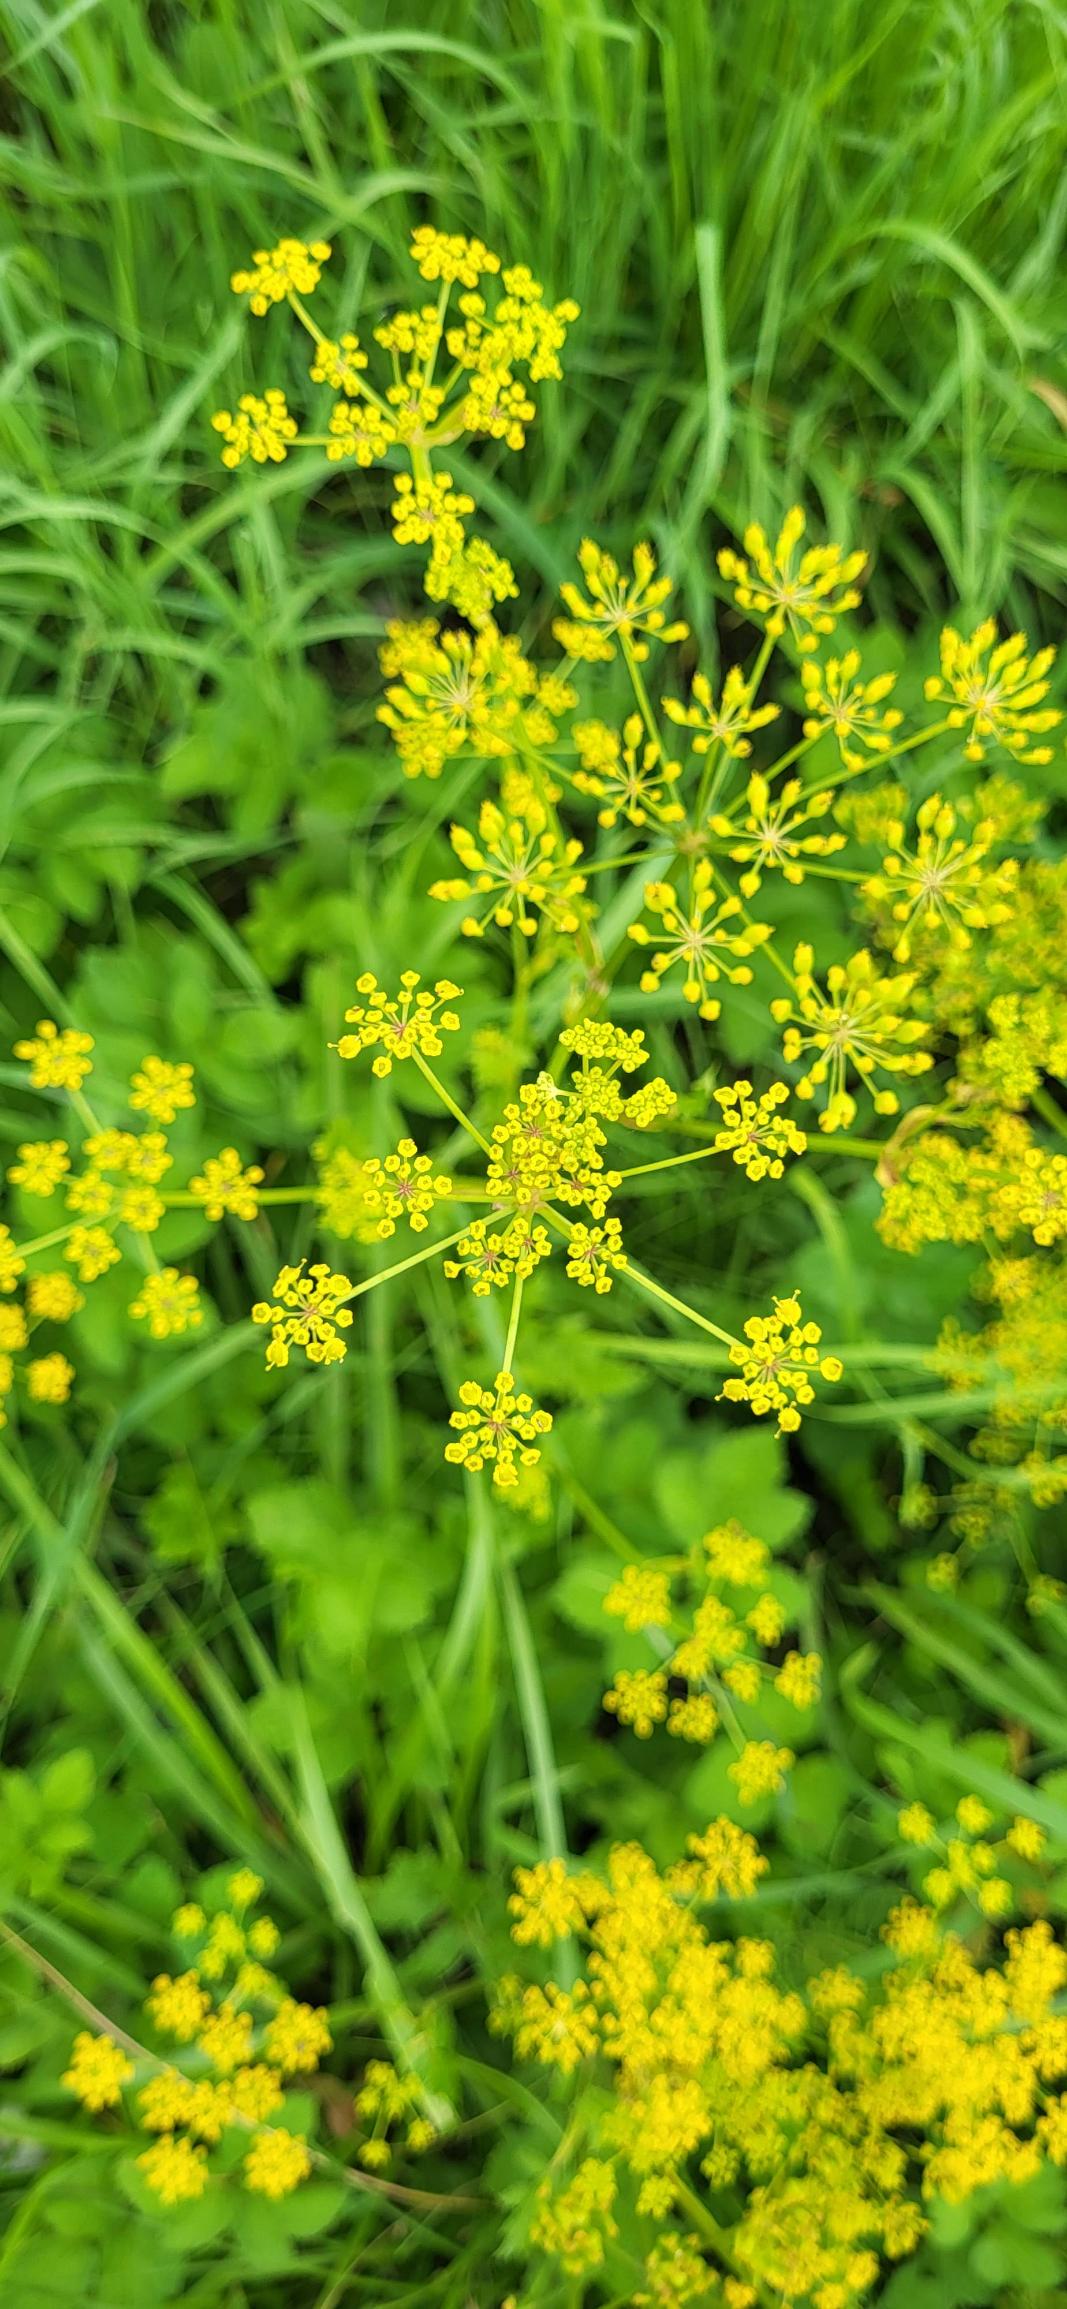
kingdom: Plantae
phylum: Tracheophyta
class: Magnoliopsida
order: Apiales
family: Apiaceae
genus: Pastinaca
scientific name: Pastinaca sativa
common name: Have-pastinak
